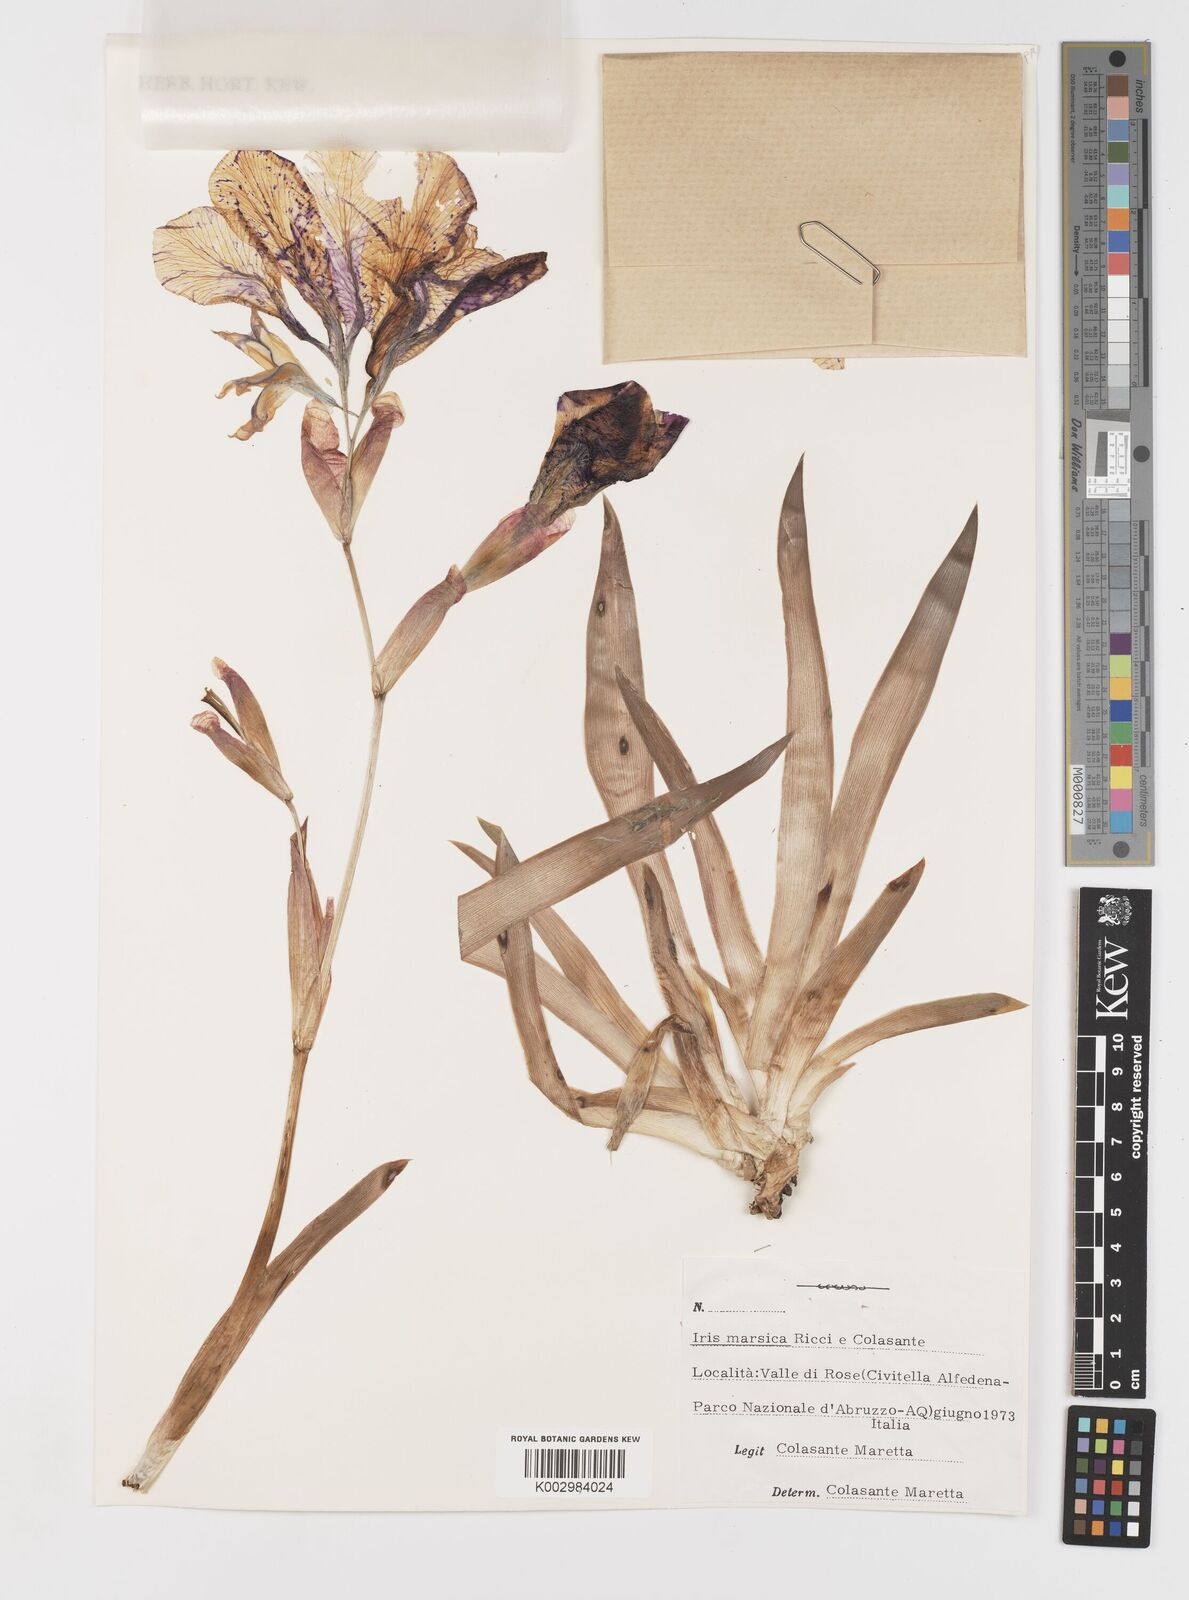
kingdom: Plantae
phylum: Tracheophyta
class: Liliopsida
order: Asparagales
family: Iridaceae
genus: Iris
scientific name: Iris marsica
